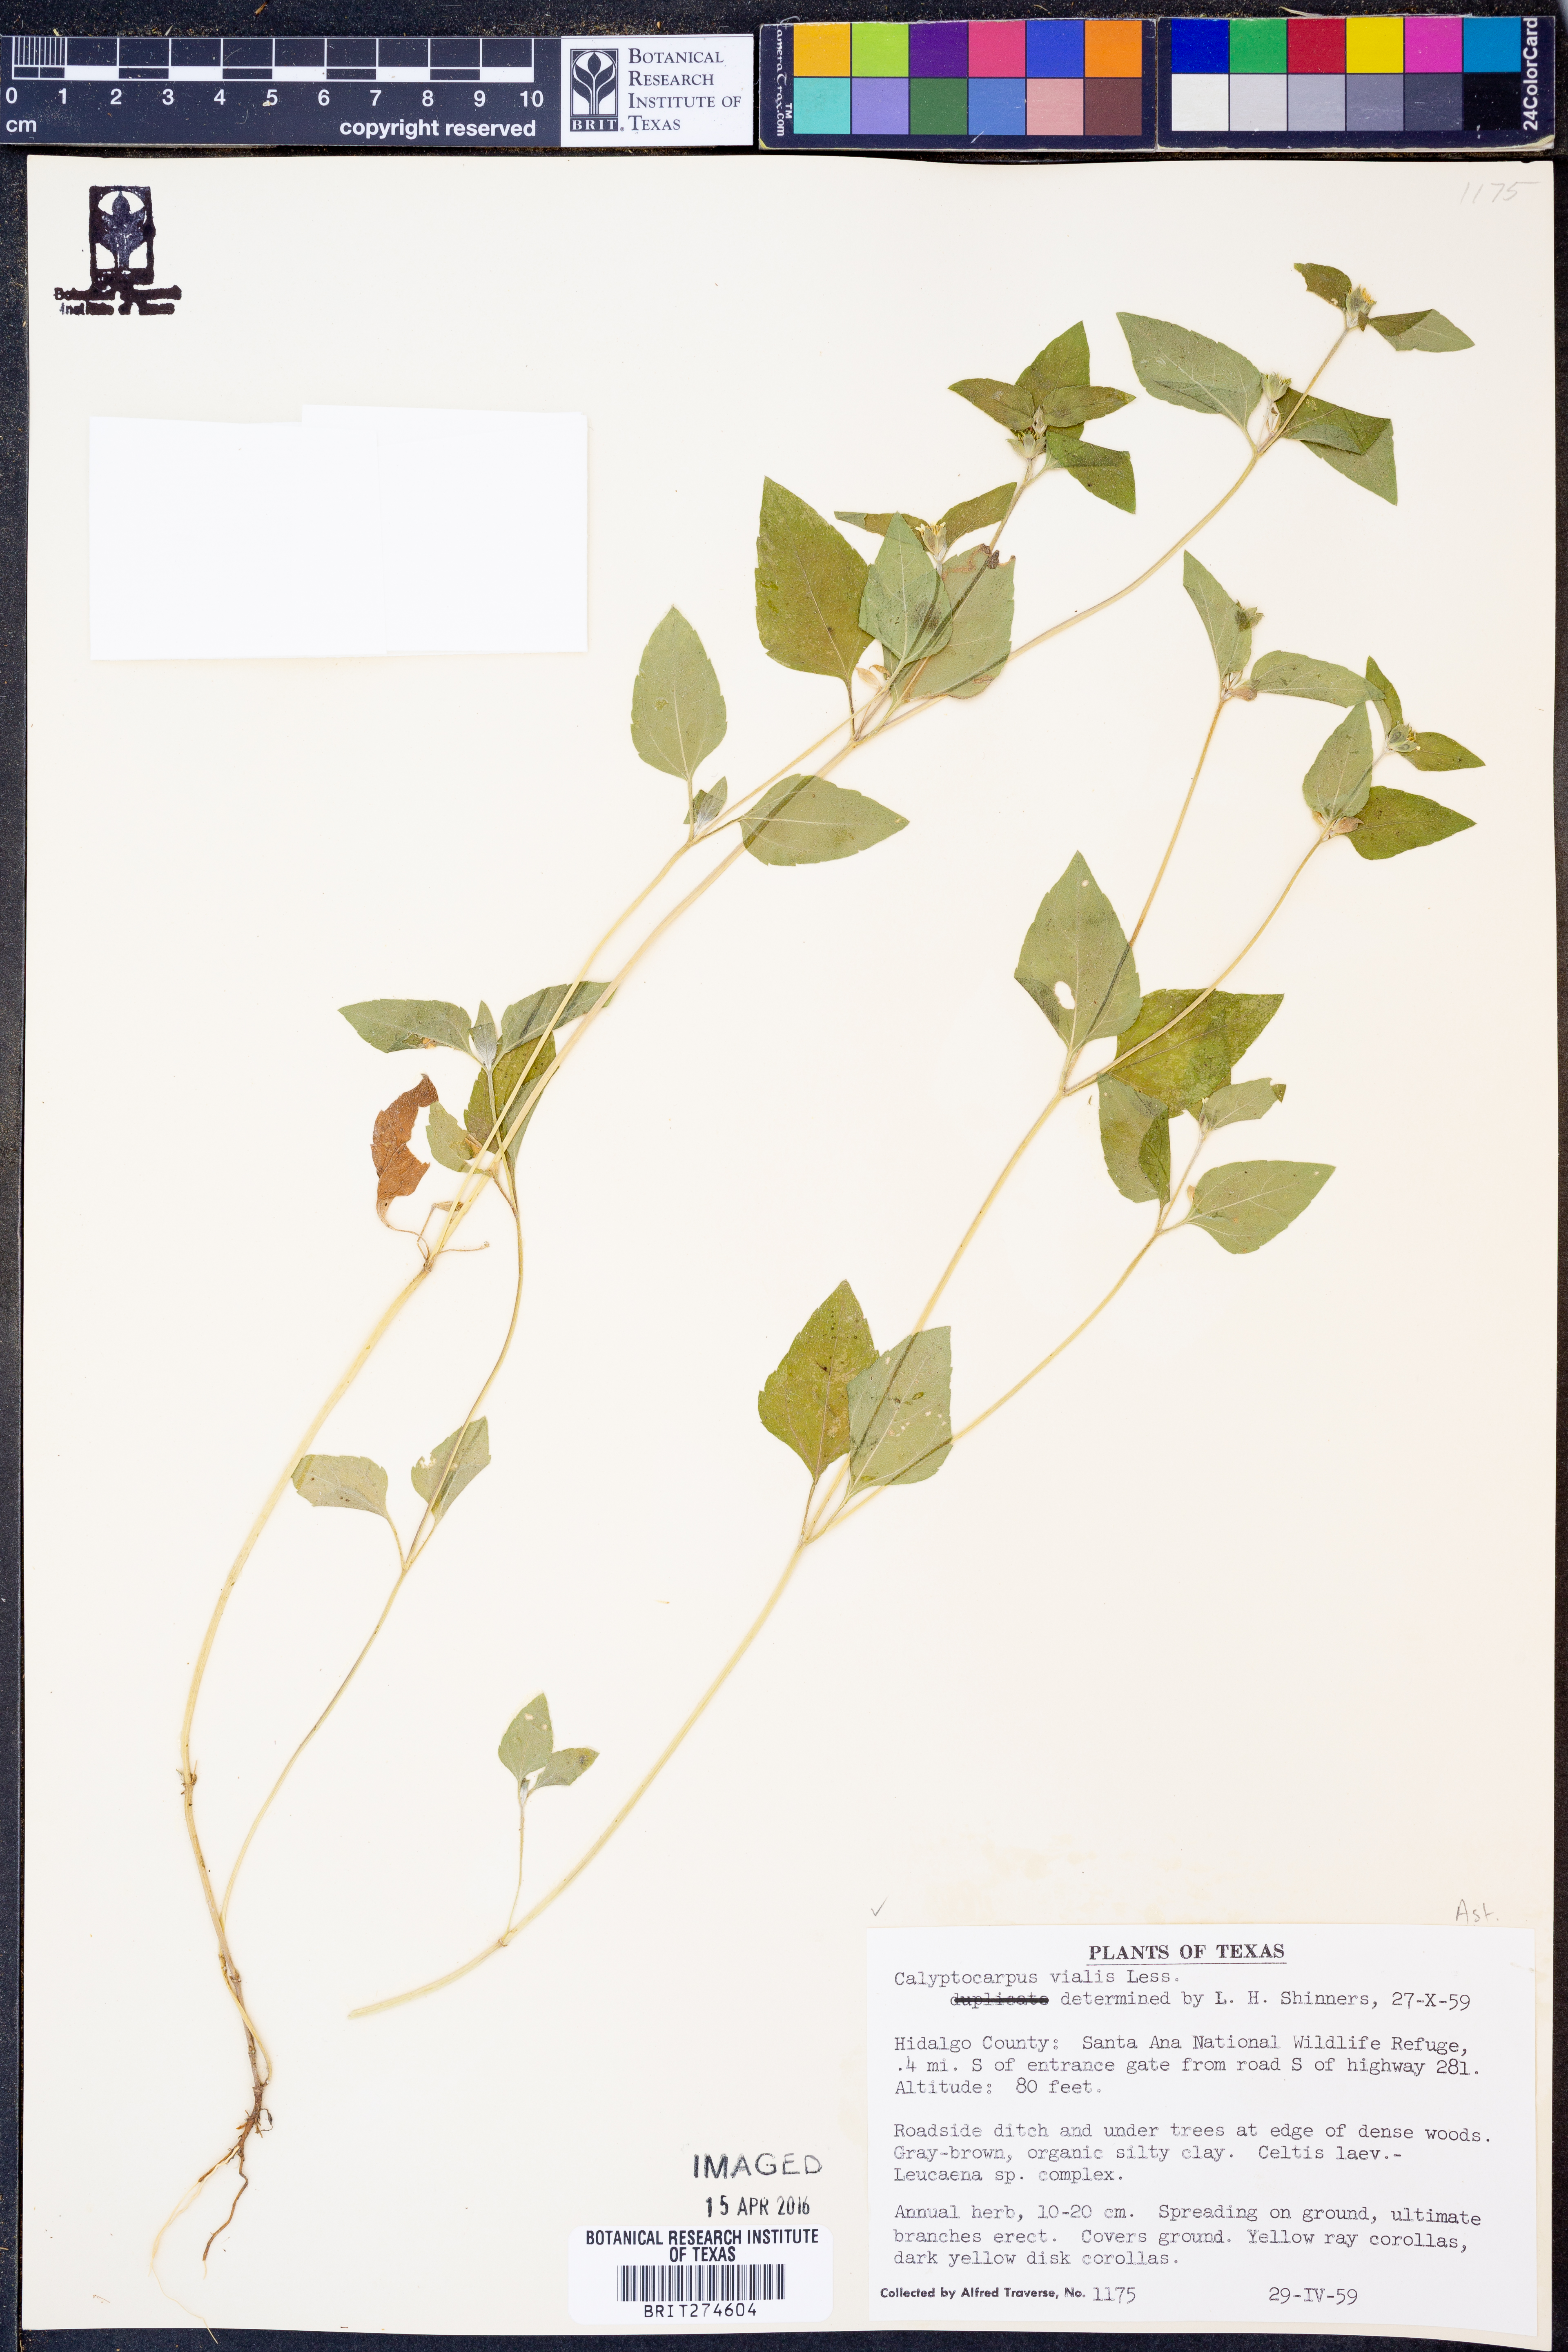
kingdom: Plantae
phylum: Tracheophyta
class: Magnoliopsida
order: Asterales
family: Asteraceae
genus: Calyptocarpus
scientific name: Calyptocarpus vialis
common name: Straggler daisy
